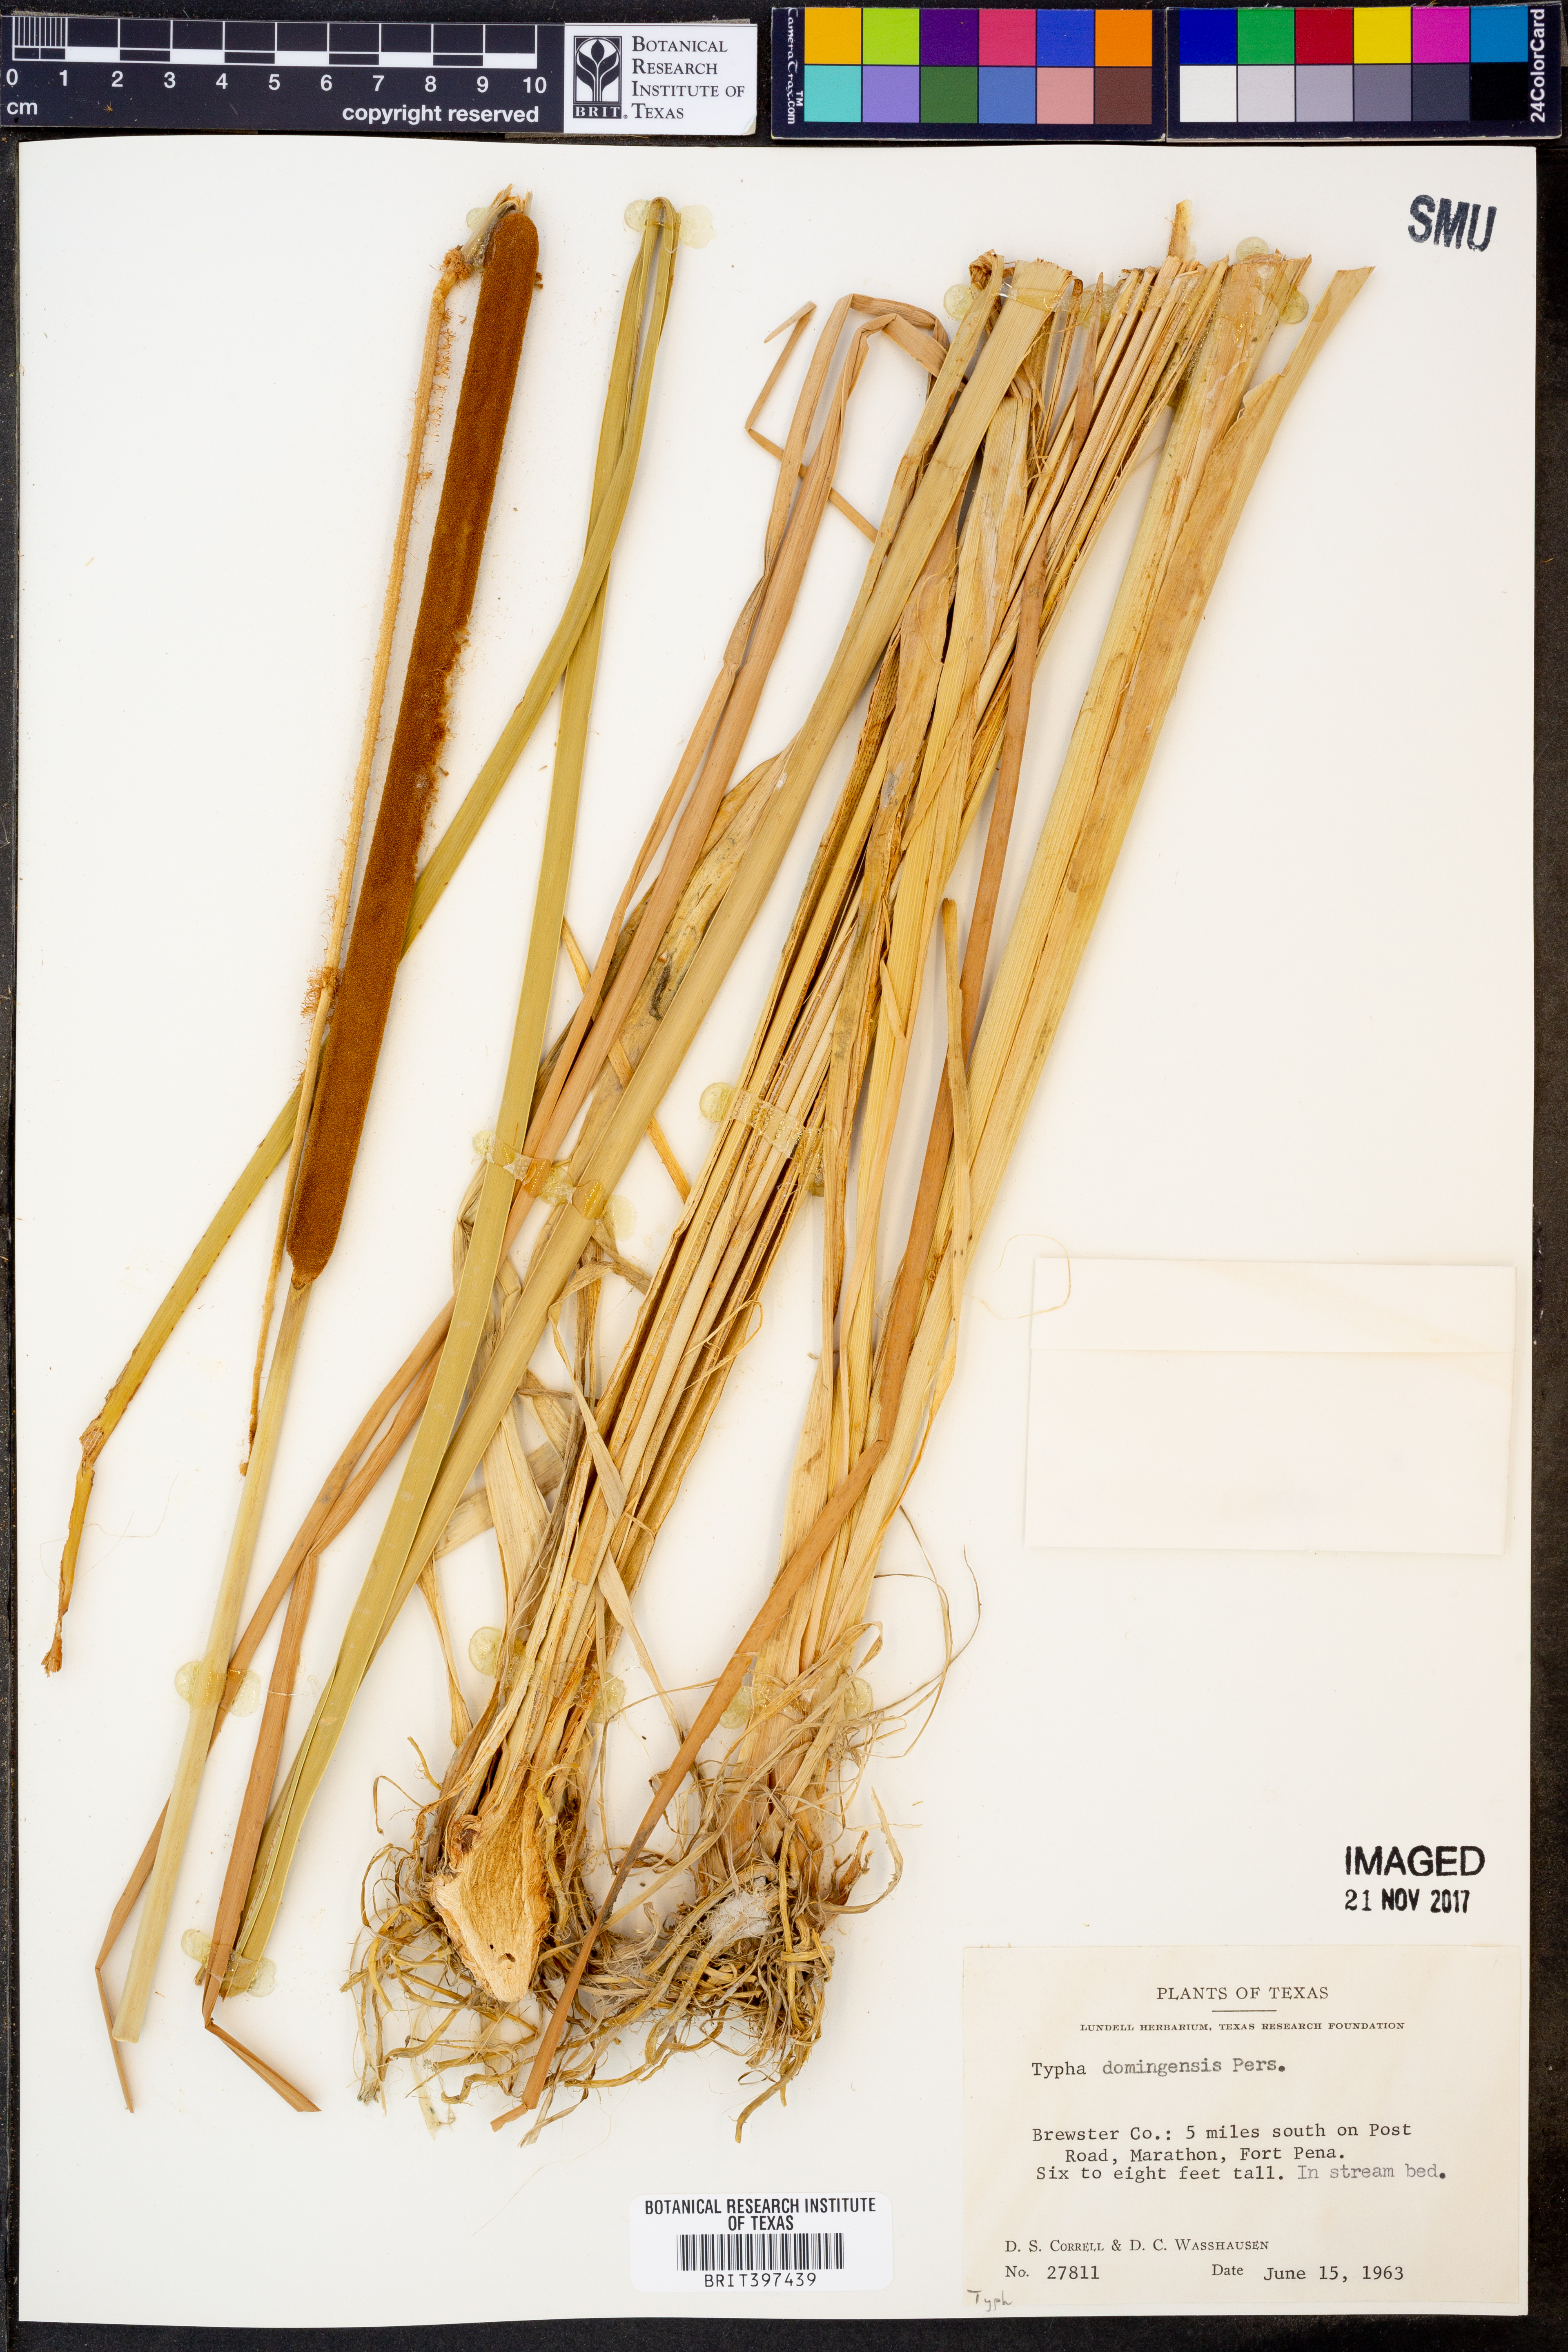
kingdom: Plantae
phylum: Tracheophyta
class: Liliopsida
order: Poales
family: Typhaceae
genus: Typha
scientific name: Typha domingensis
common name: Southern cattail
